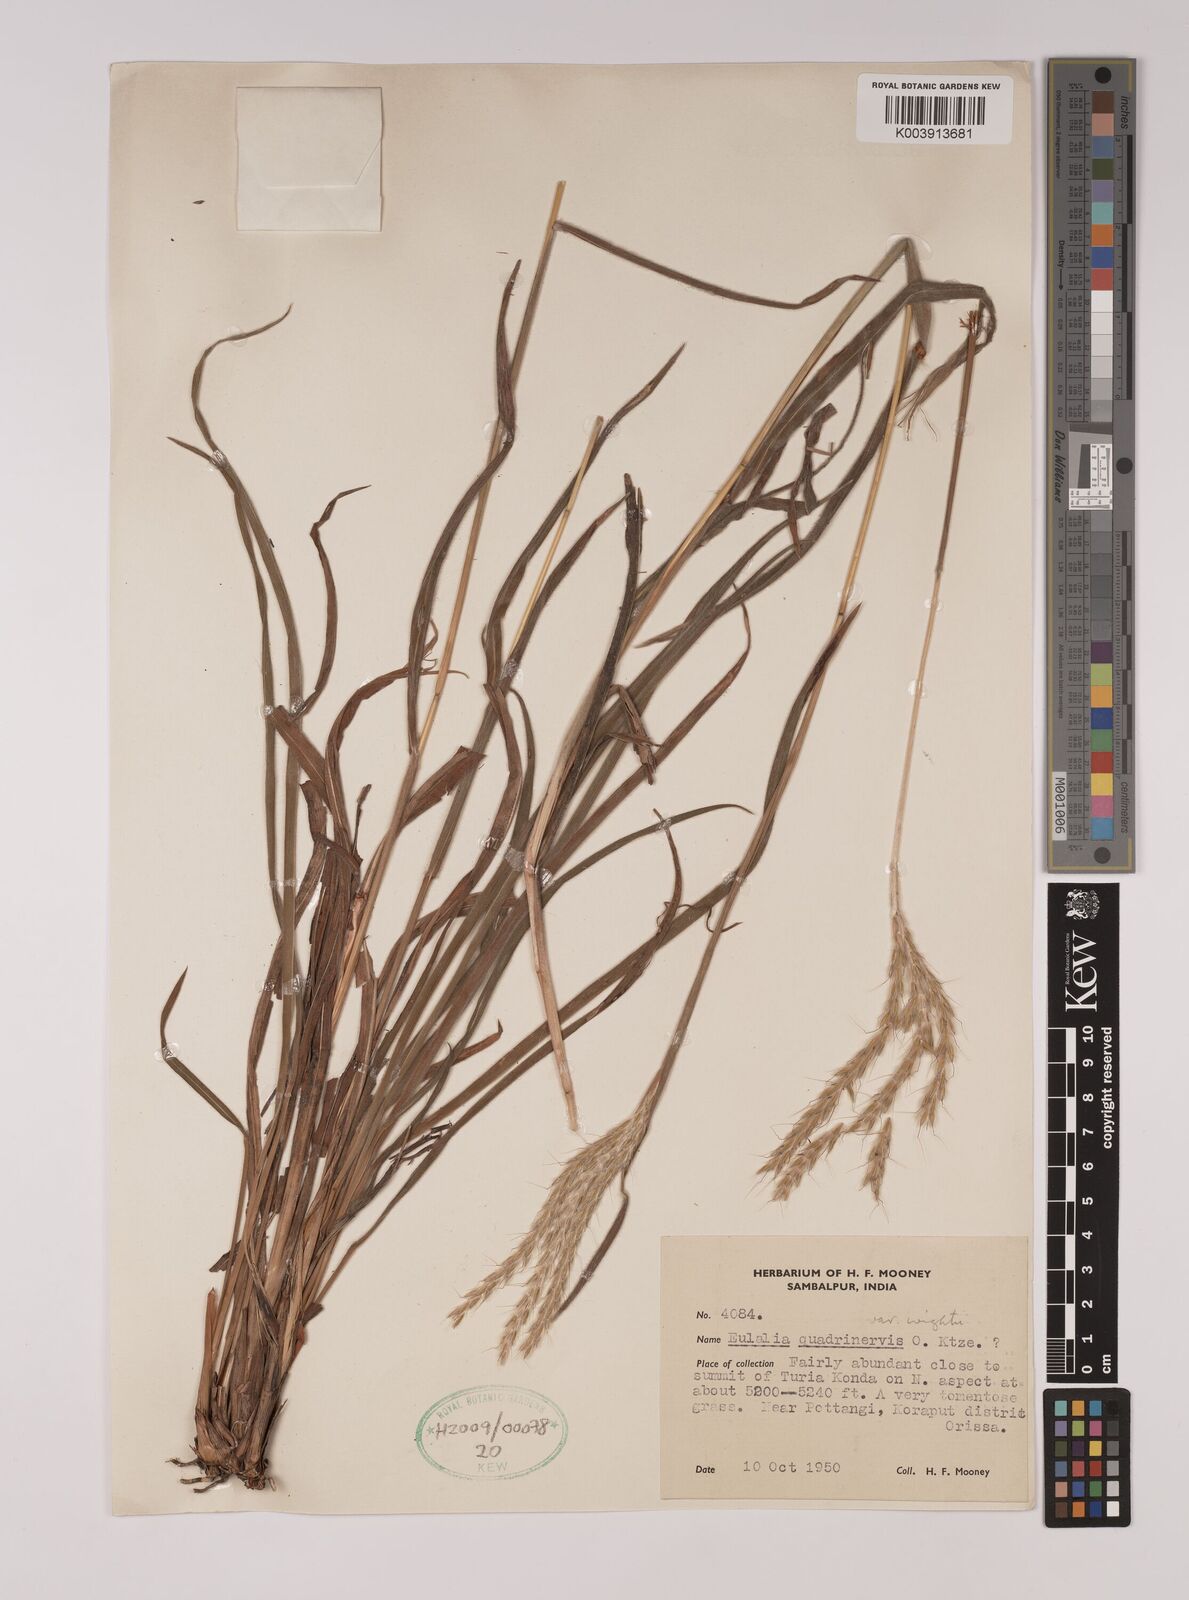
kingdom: Plantae
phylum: Tracheophyta
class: Liliopsida
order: Poales
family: Poaceae
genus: Pseudopogonatherum
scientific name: Pseudopogonatherum quadrinerve
